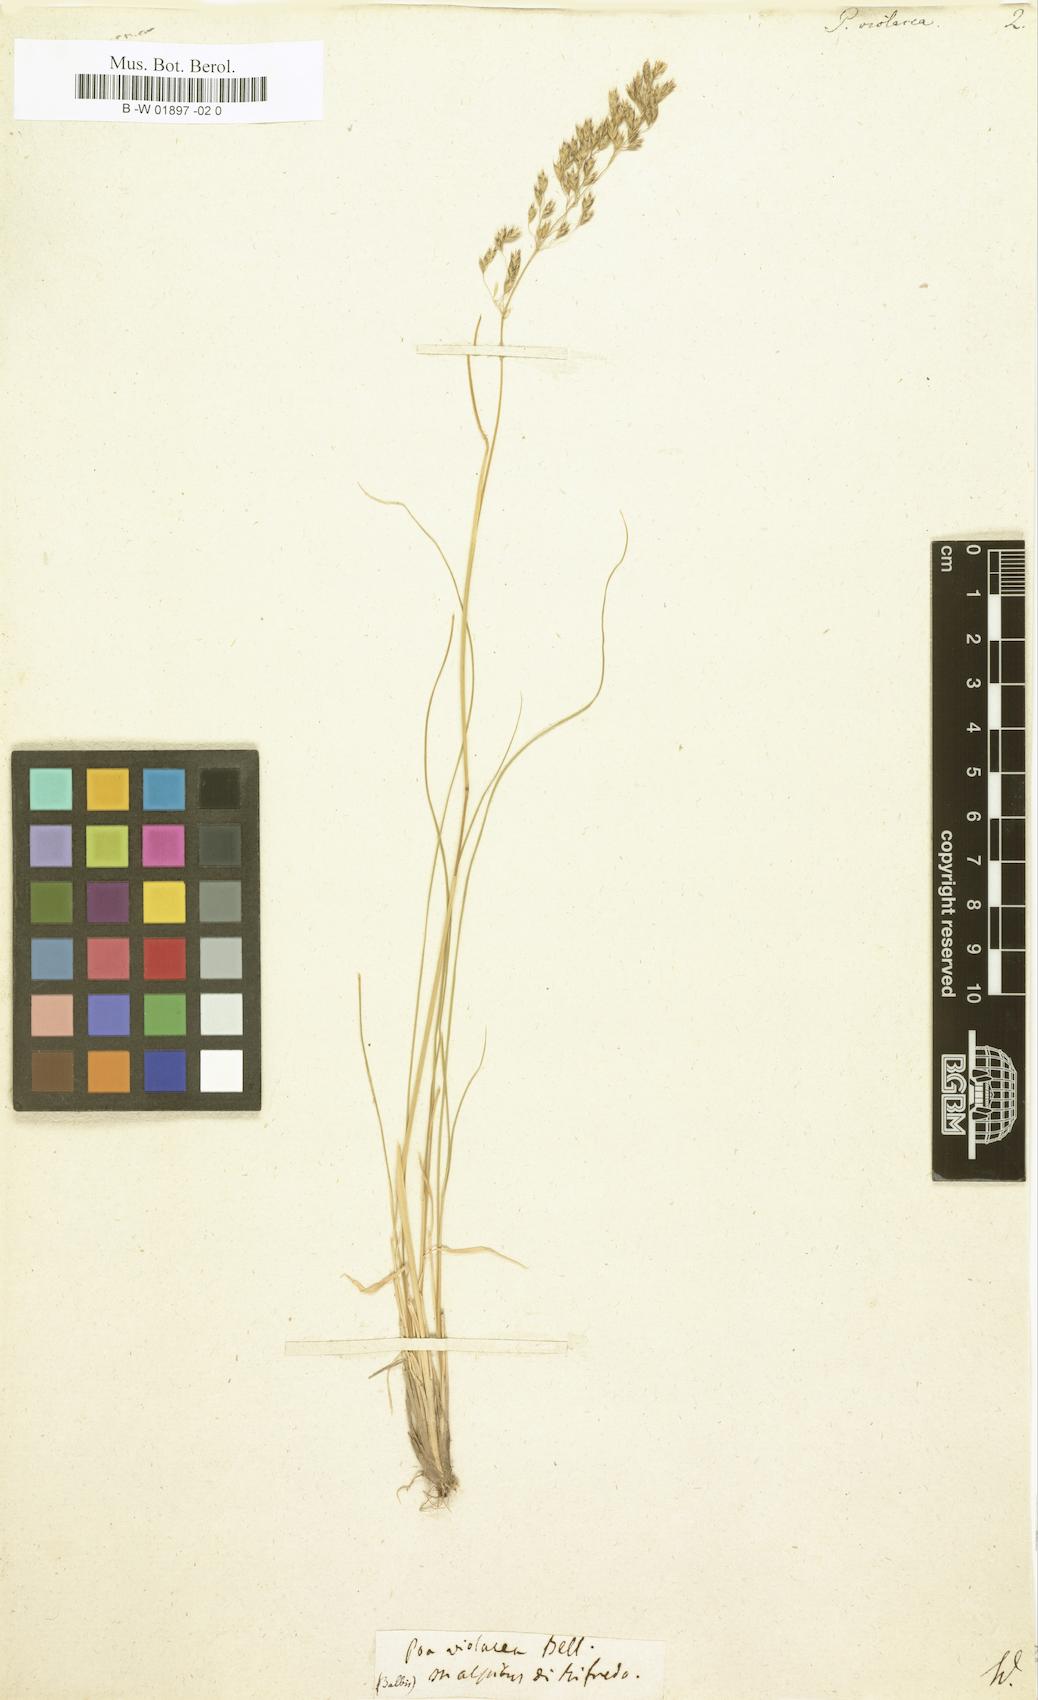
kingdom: Plantae
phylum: Tracheophyta
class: Liliopsida
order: Poales
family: Poaceae
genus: Bellardiochloa
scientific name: Bellardiochloa variegata
